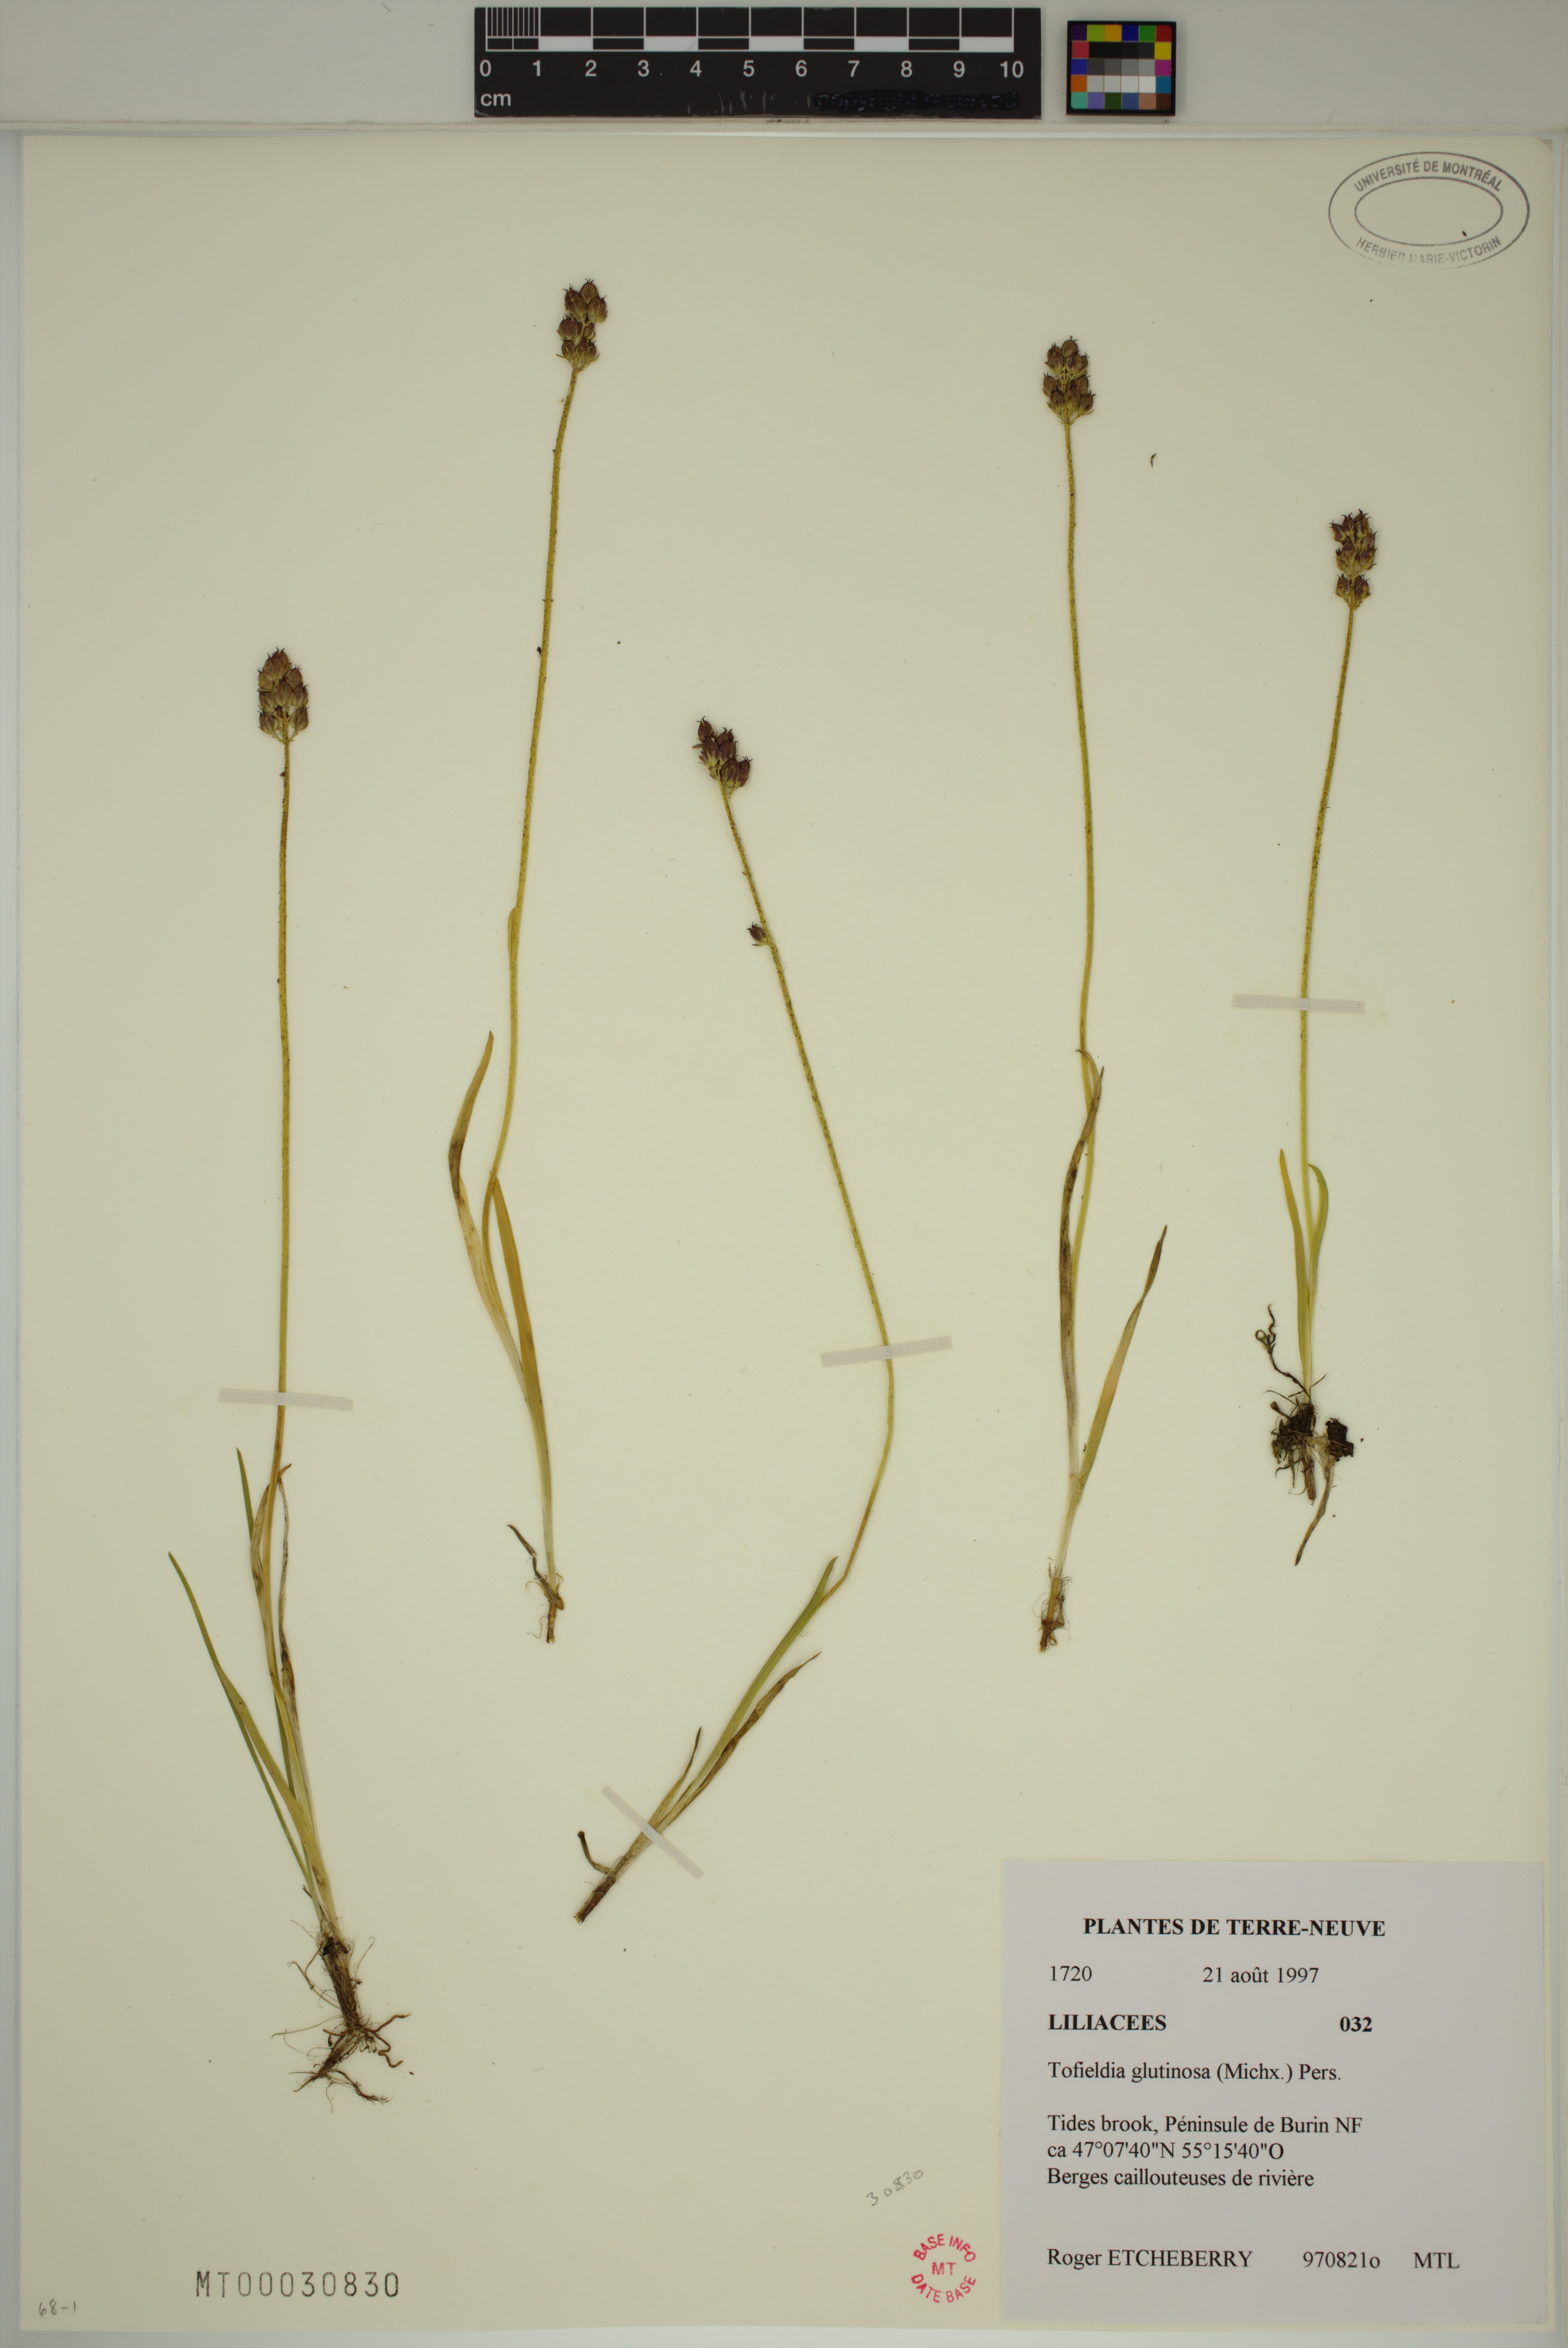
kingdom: Plantae
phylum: Tracheophyta
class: Liliopsida
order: Alismatales
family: Tofieldiaceae
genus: Triantha
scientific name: Triantha glutinosa
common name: Glutinous tofieldia
